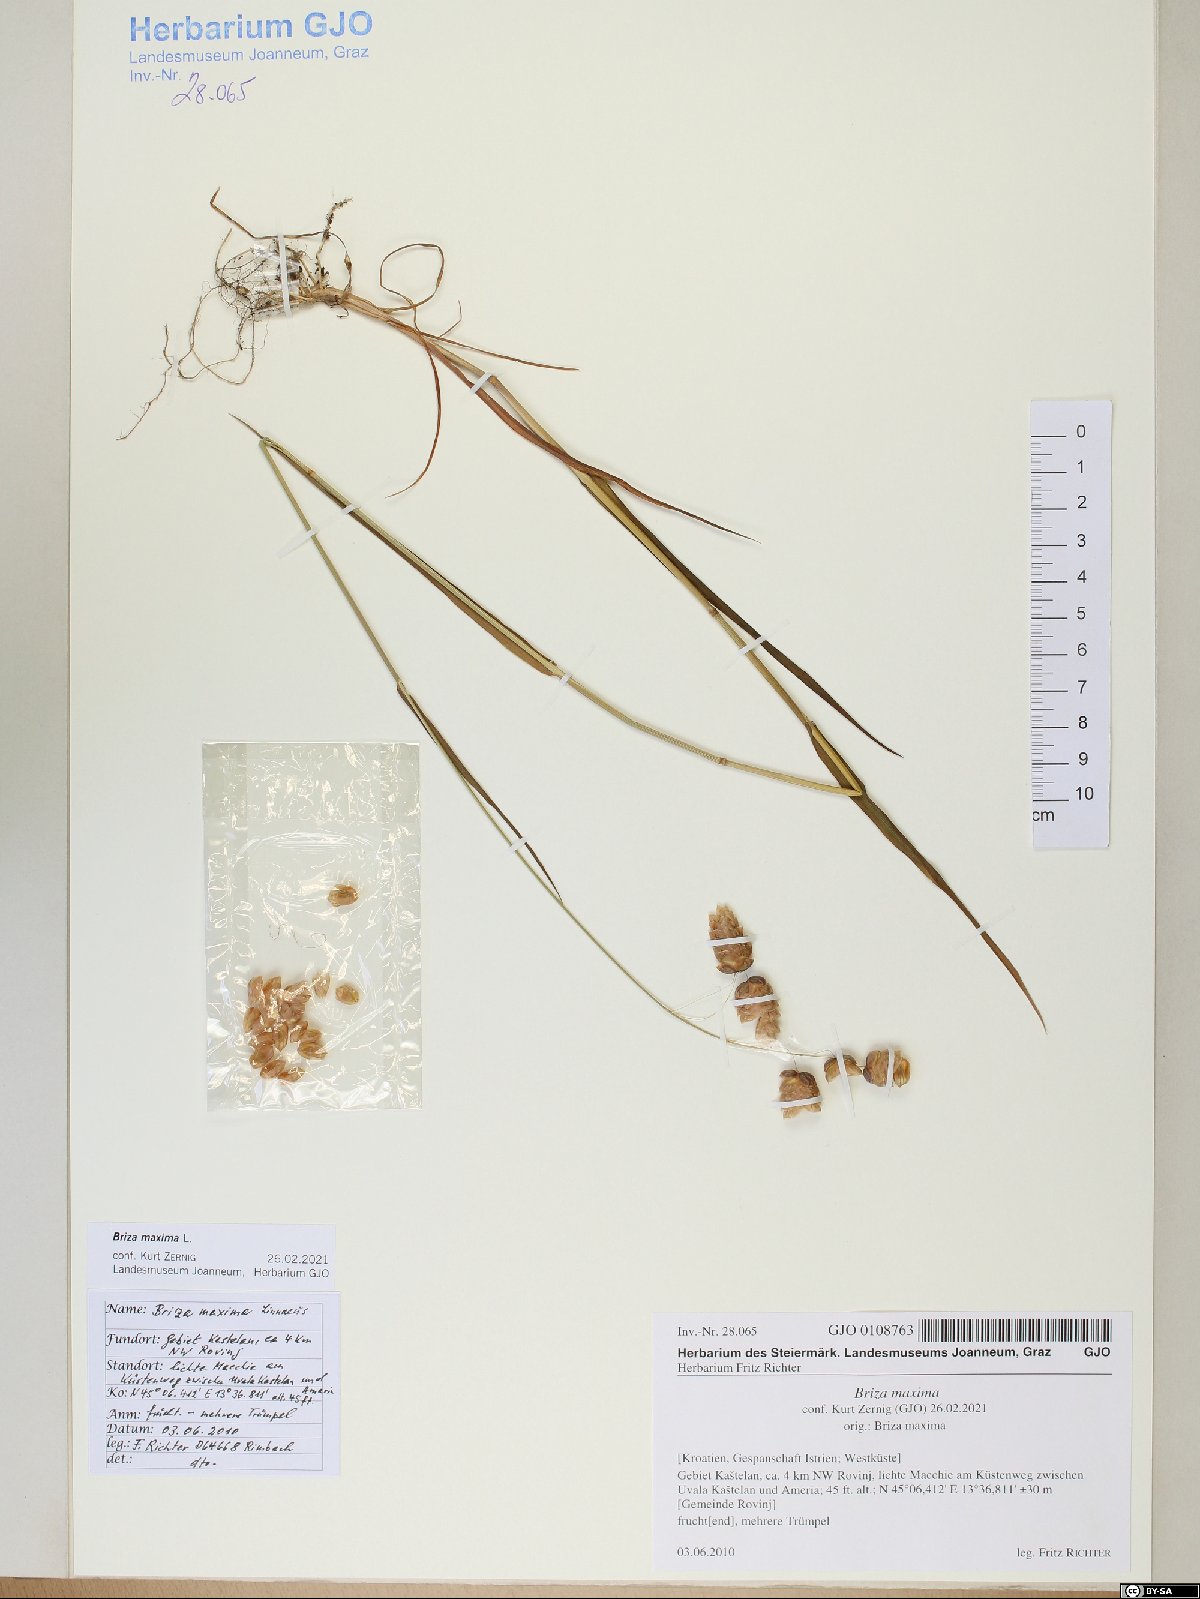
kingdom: Plantae
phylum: Tracheophyta
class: Liliopsida
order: Poales
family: Poaceae
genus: Briza
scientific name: Briza maxima
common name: Big quakinggrass
